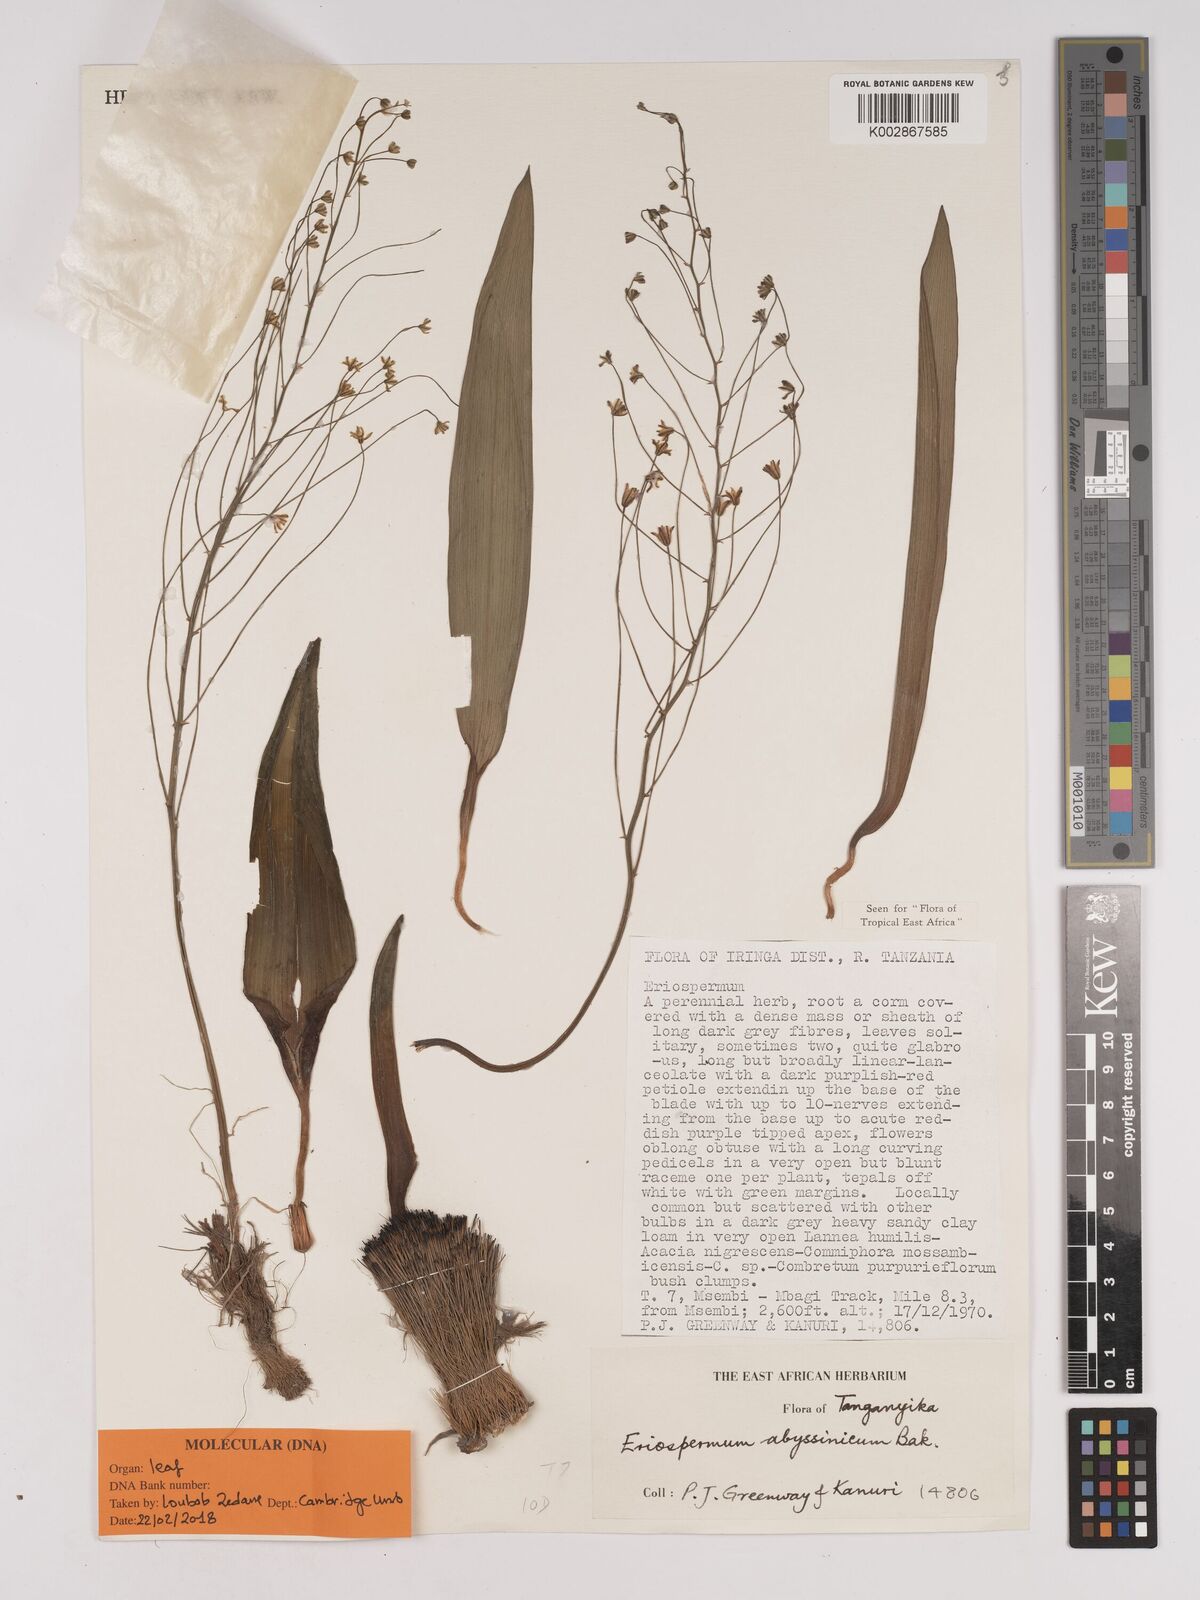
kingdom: Plantae
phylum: Tracheophyta
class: Liliopsida
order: Asparagales
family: Asparagaceae
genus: Eriospermum
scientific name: Eriospermum abyssinicum
